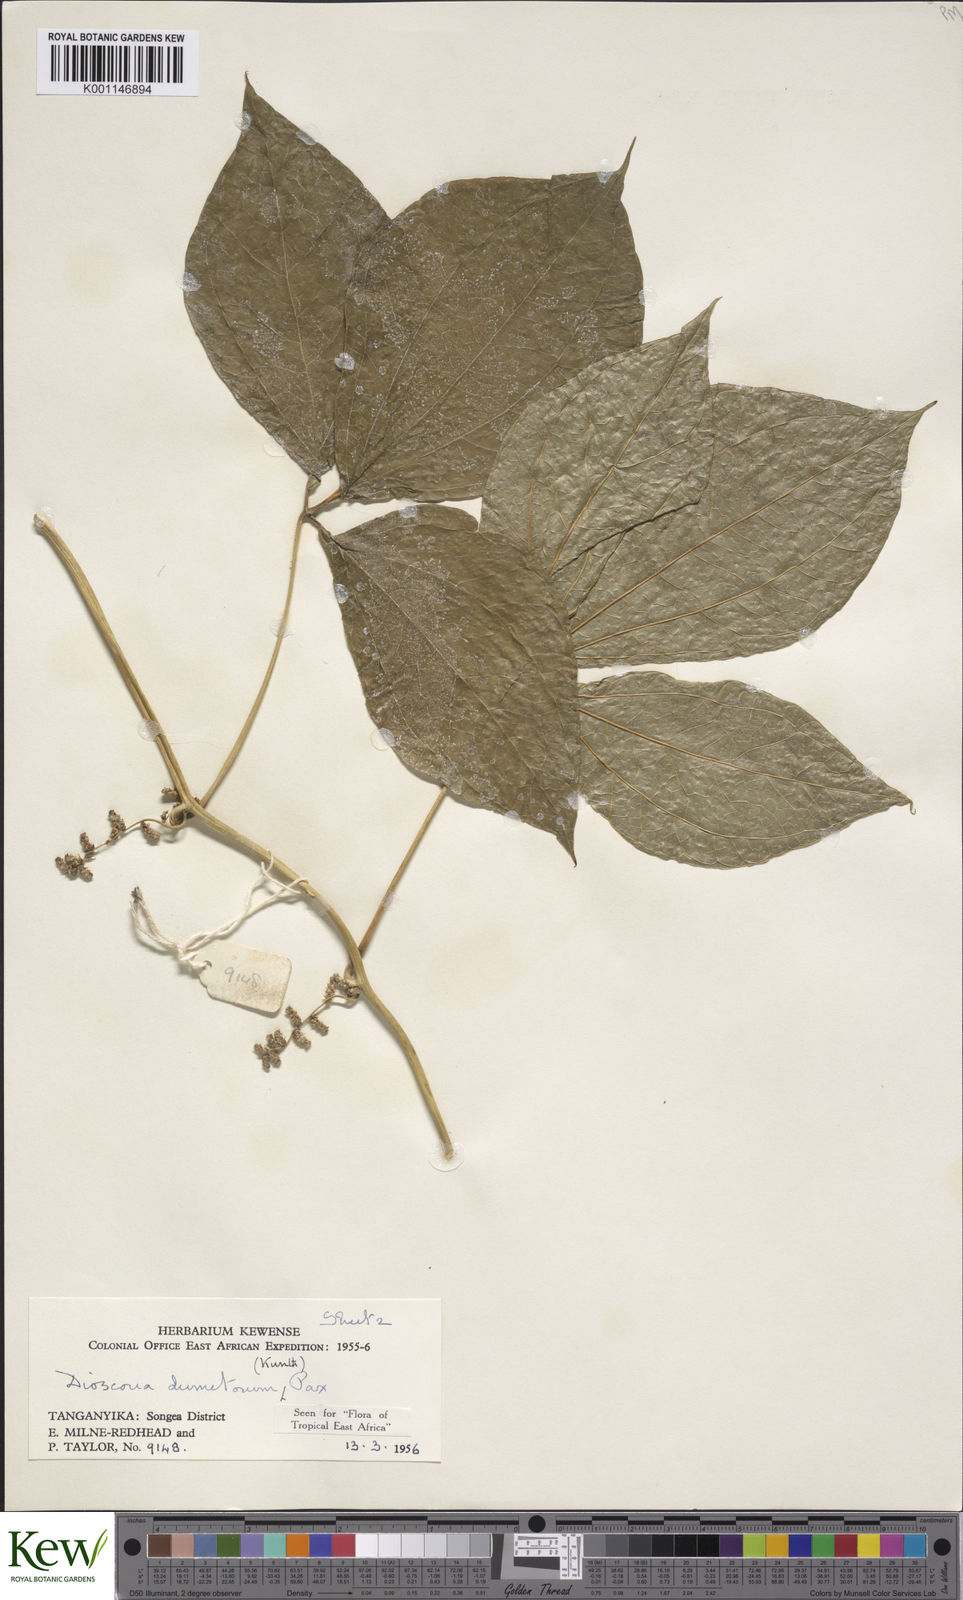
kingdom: Plantae
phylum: Tracheophyta
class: Liliopsida
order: Dioscoreales
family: Dioscoreaceae
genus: Dioscorea
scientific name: Dioscorea dumetorum
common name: African bitter yam
